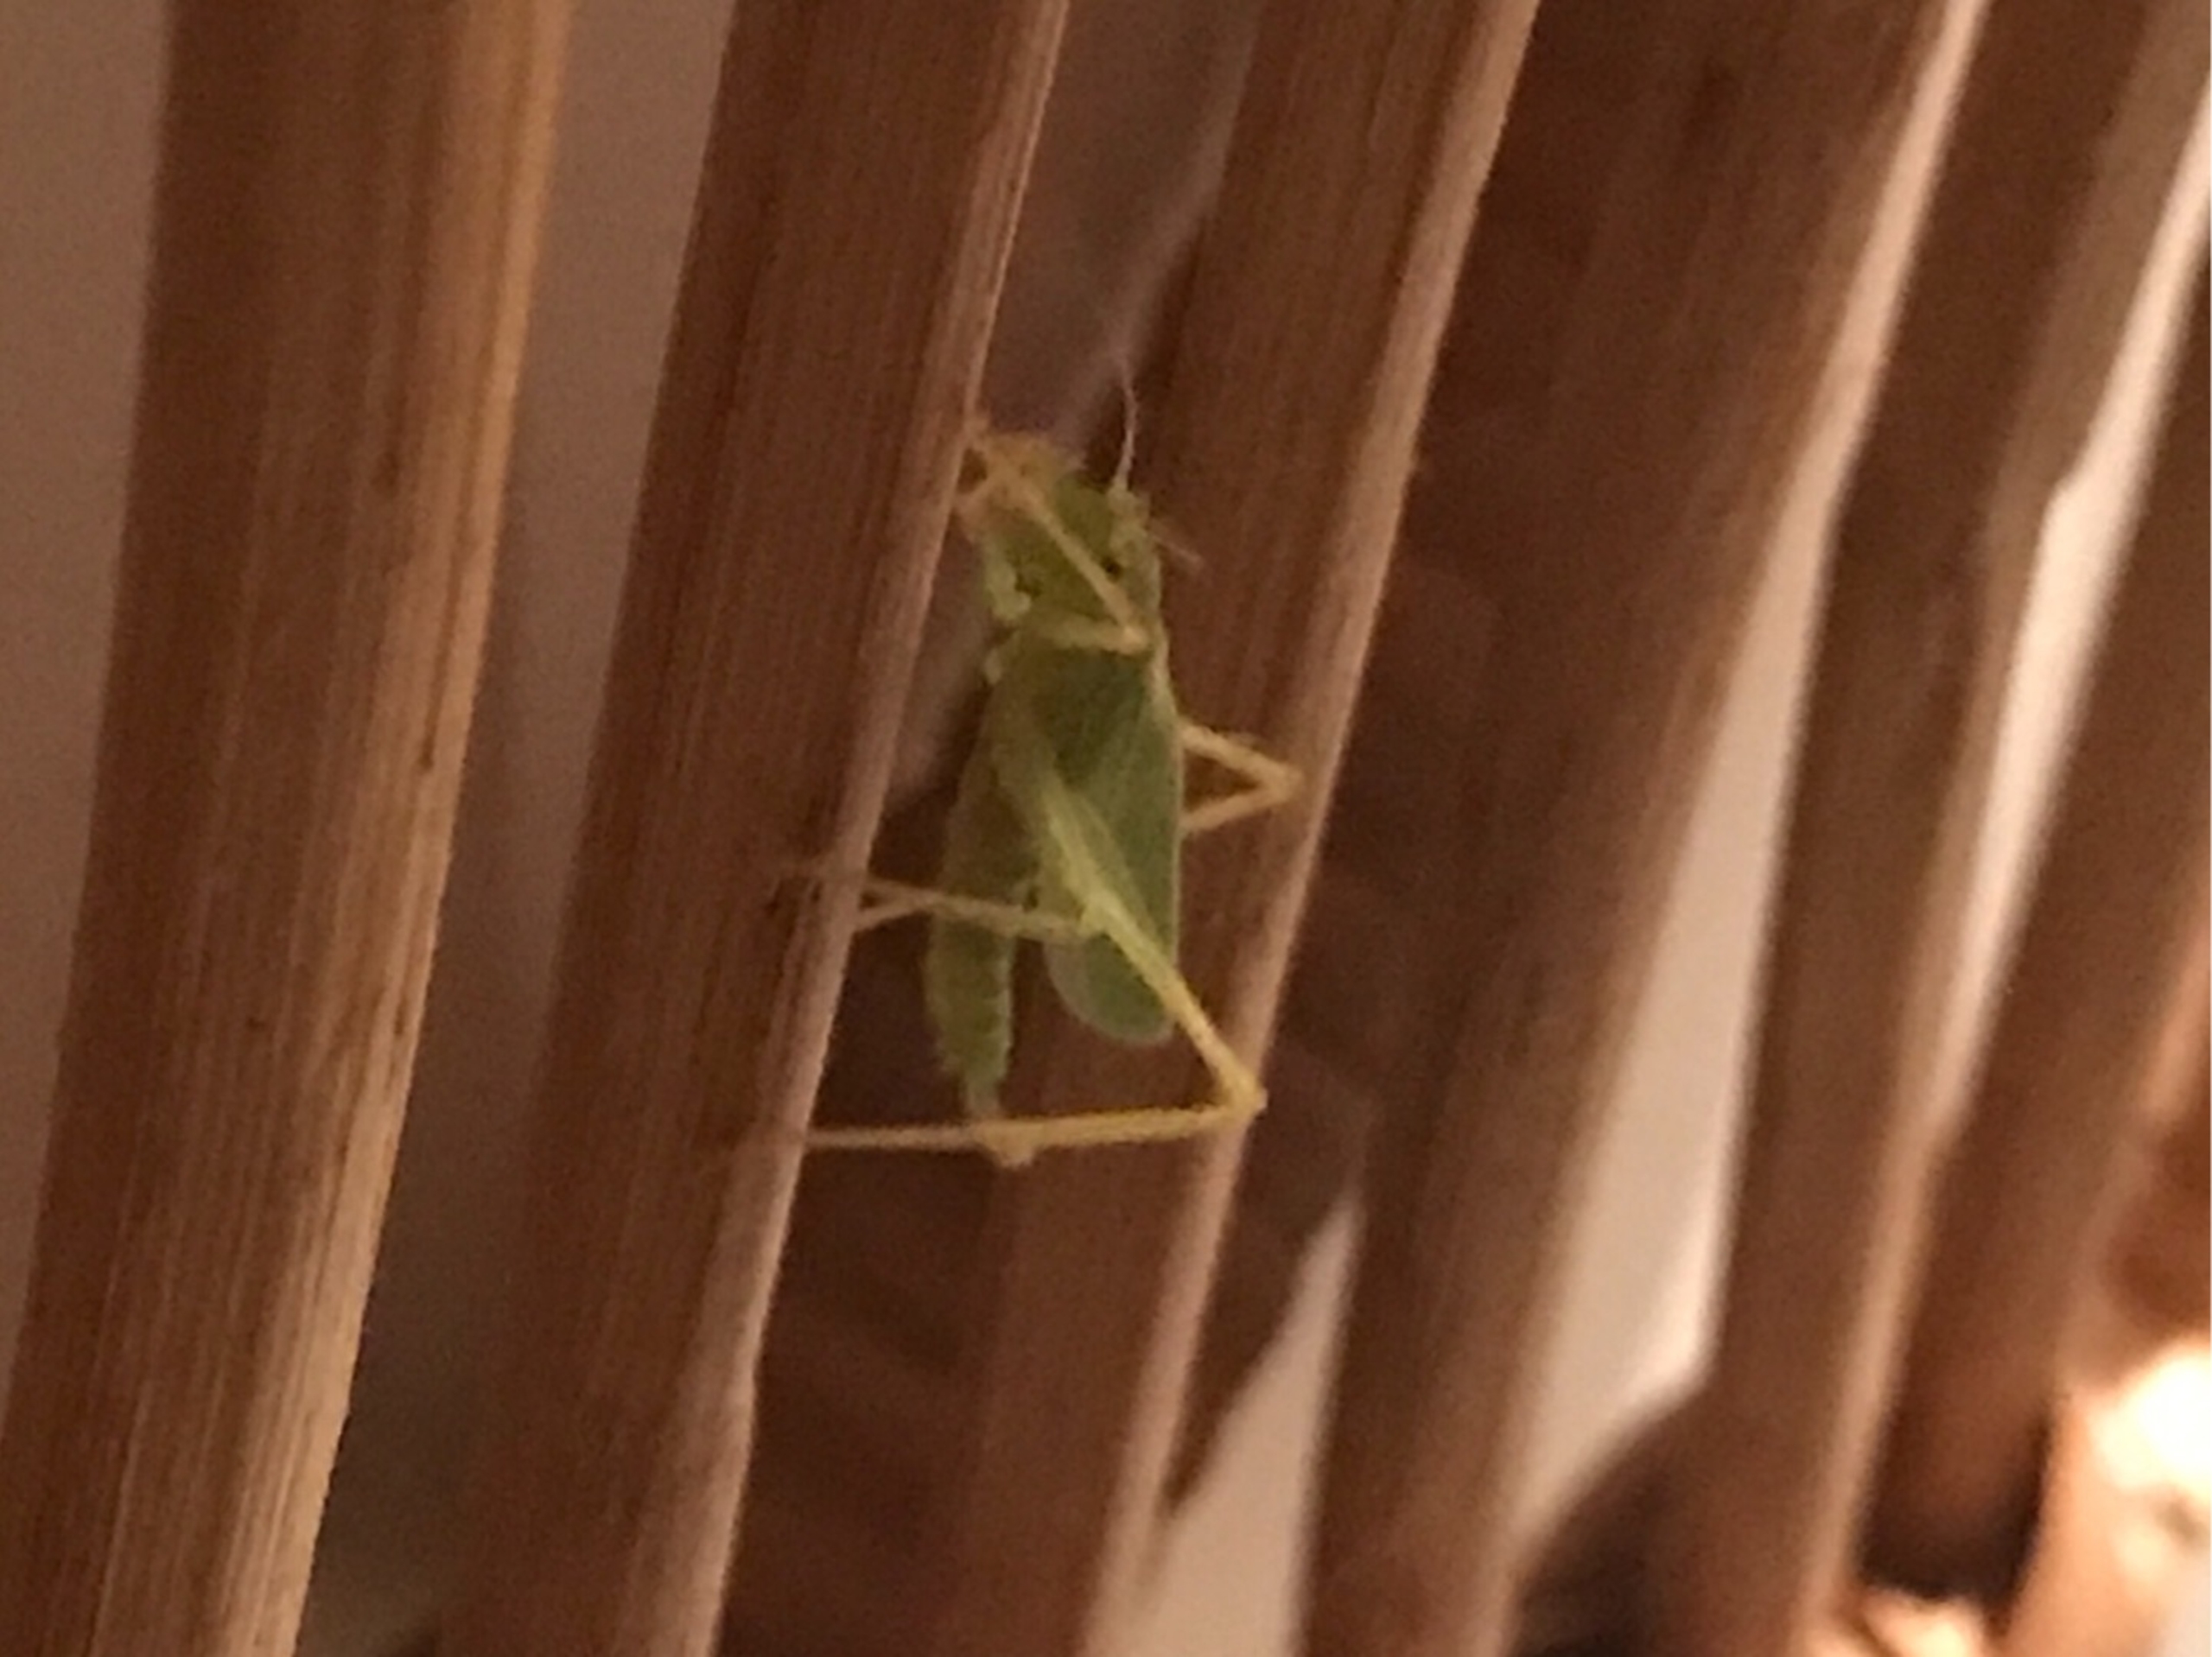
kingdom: Animalia
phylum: Arthropoda
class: Insecta
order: Orthoptera
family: Tettigoniidae
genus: Meconema
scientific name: Meconema thalassinum
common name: Egegræshoppe
